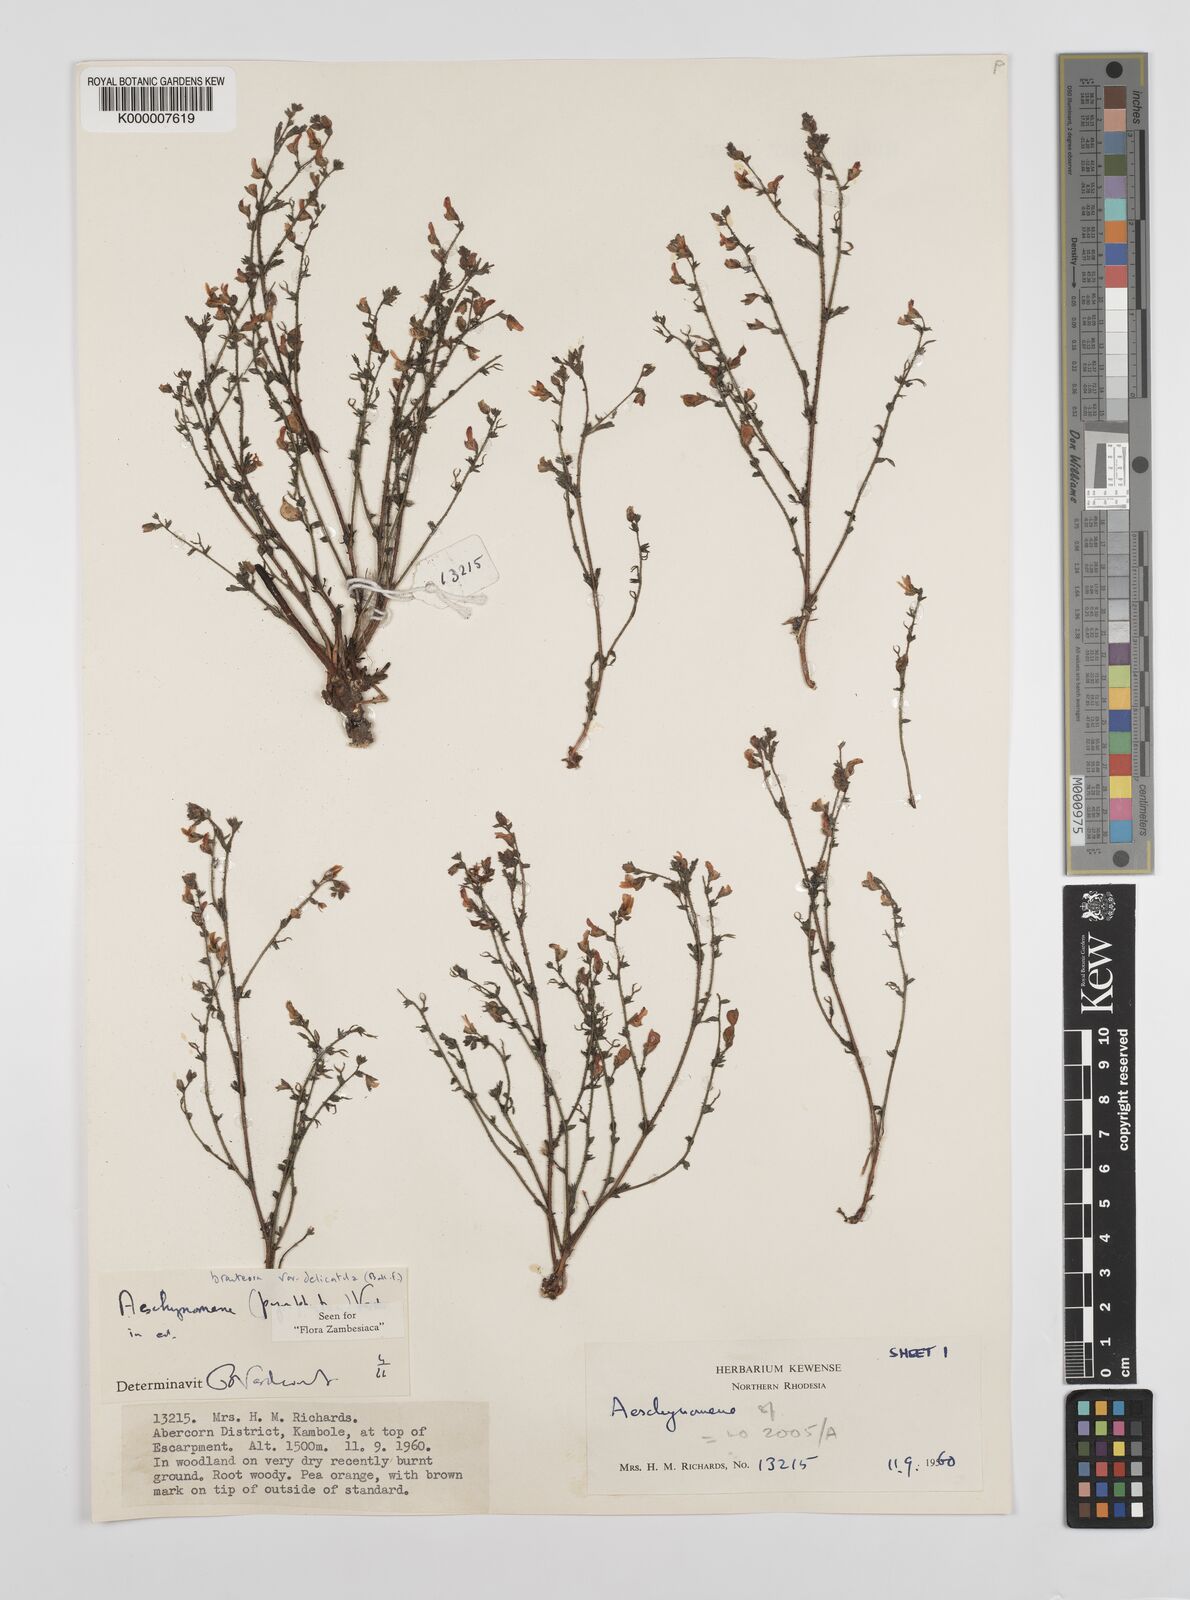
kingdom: Plantae
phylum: Tracheophyta
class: Magnoliopsida
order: Fabales
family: Fabaceae
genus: Aeschynomene
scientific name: Aeschynomene bracteosa
